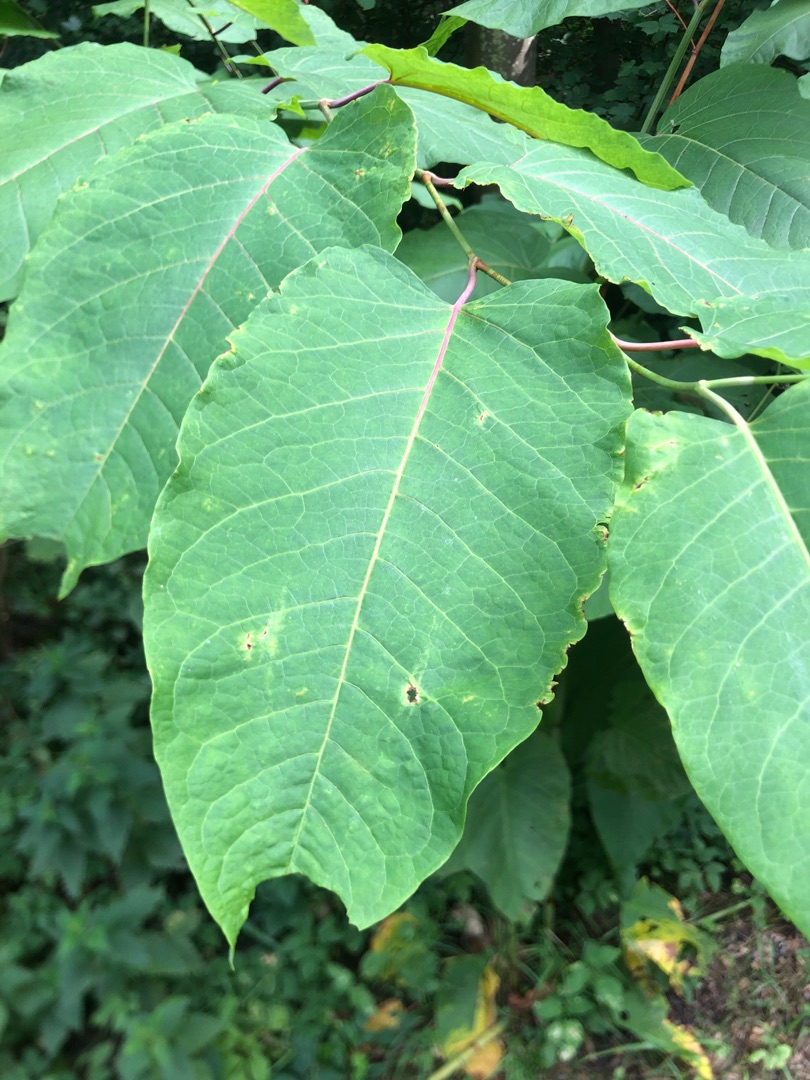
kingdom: Plantae
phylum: Tracheophyta
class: Magnoliopsida
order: Caryophyllales
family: Polygonaceae
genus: Reynoutria
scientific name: Reynoutria sachalinensis
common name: Kæmpe-pileurt
